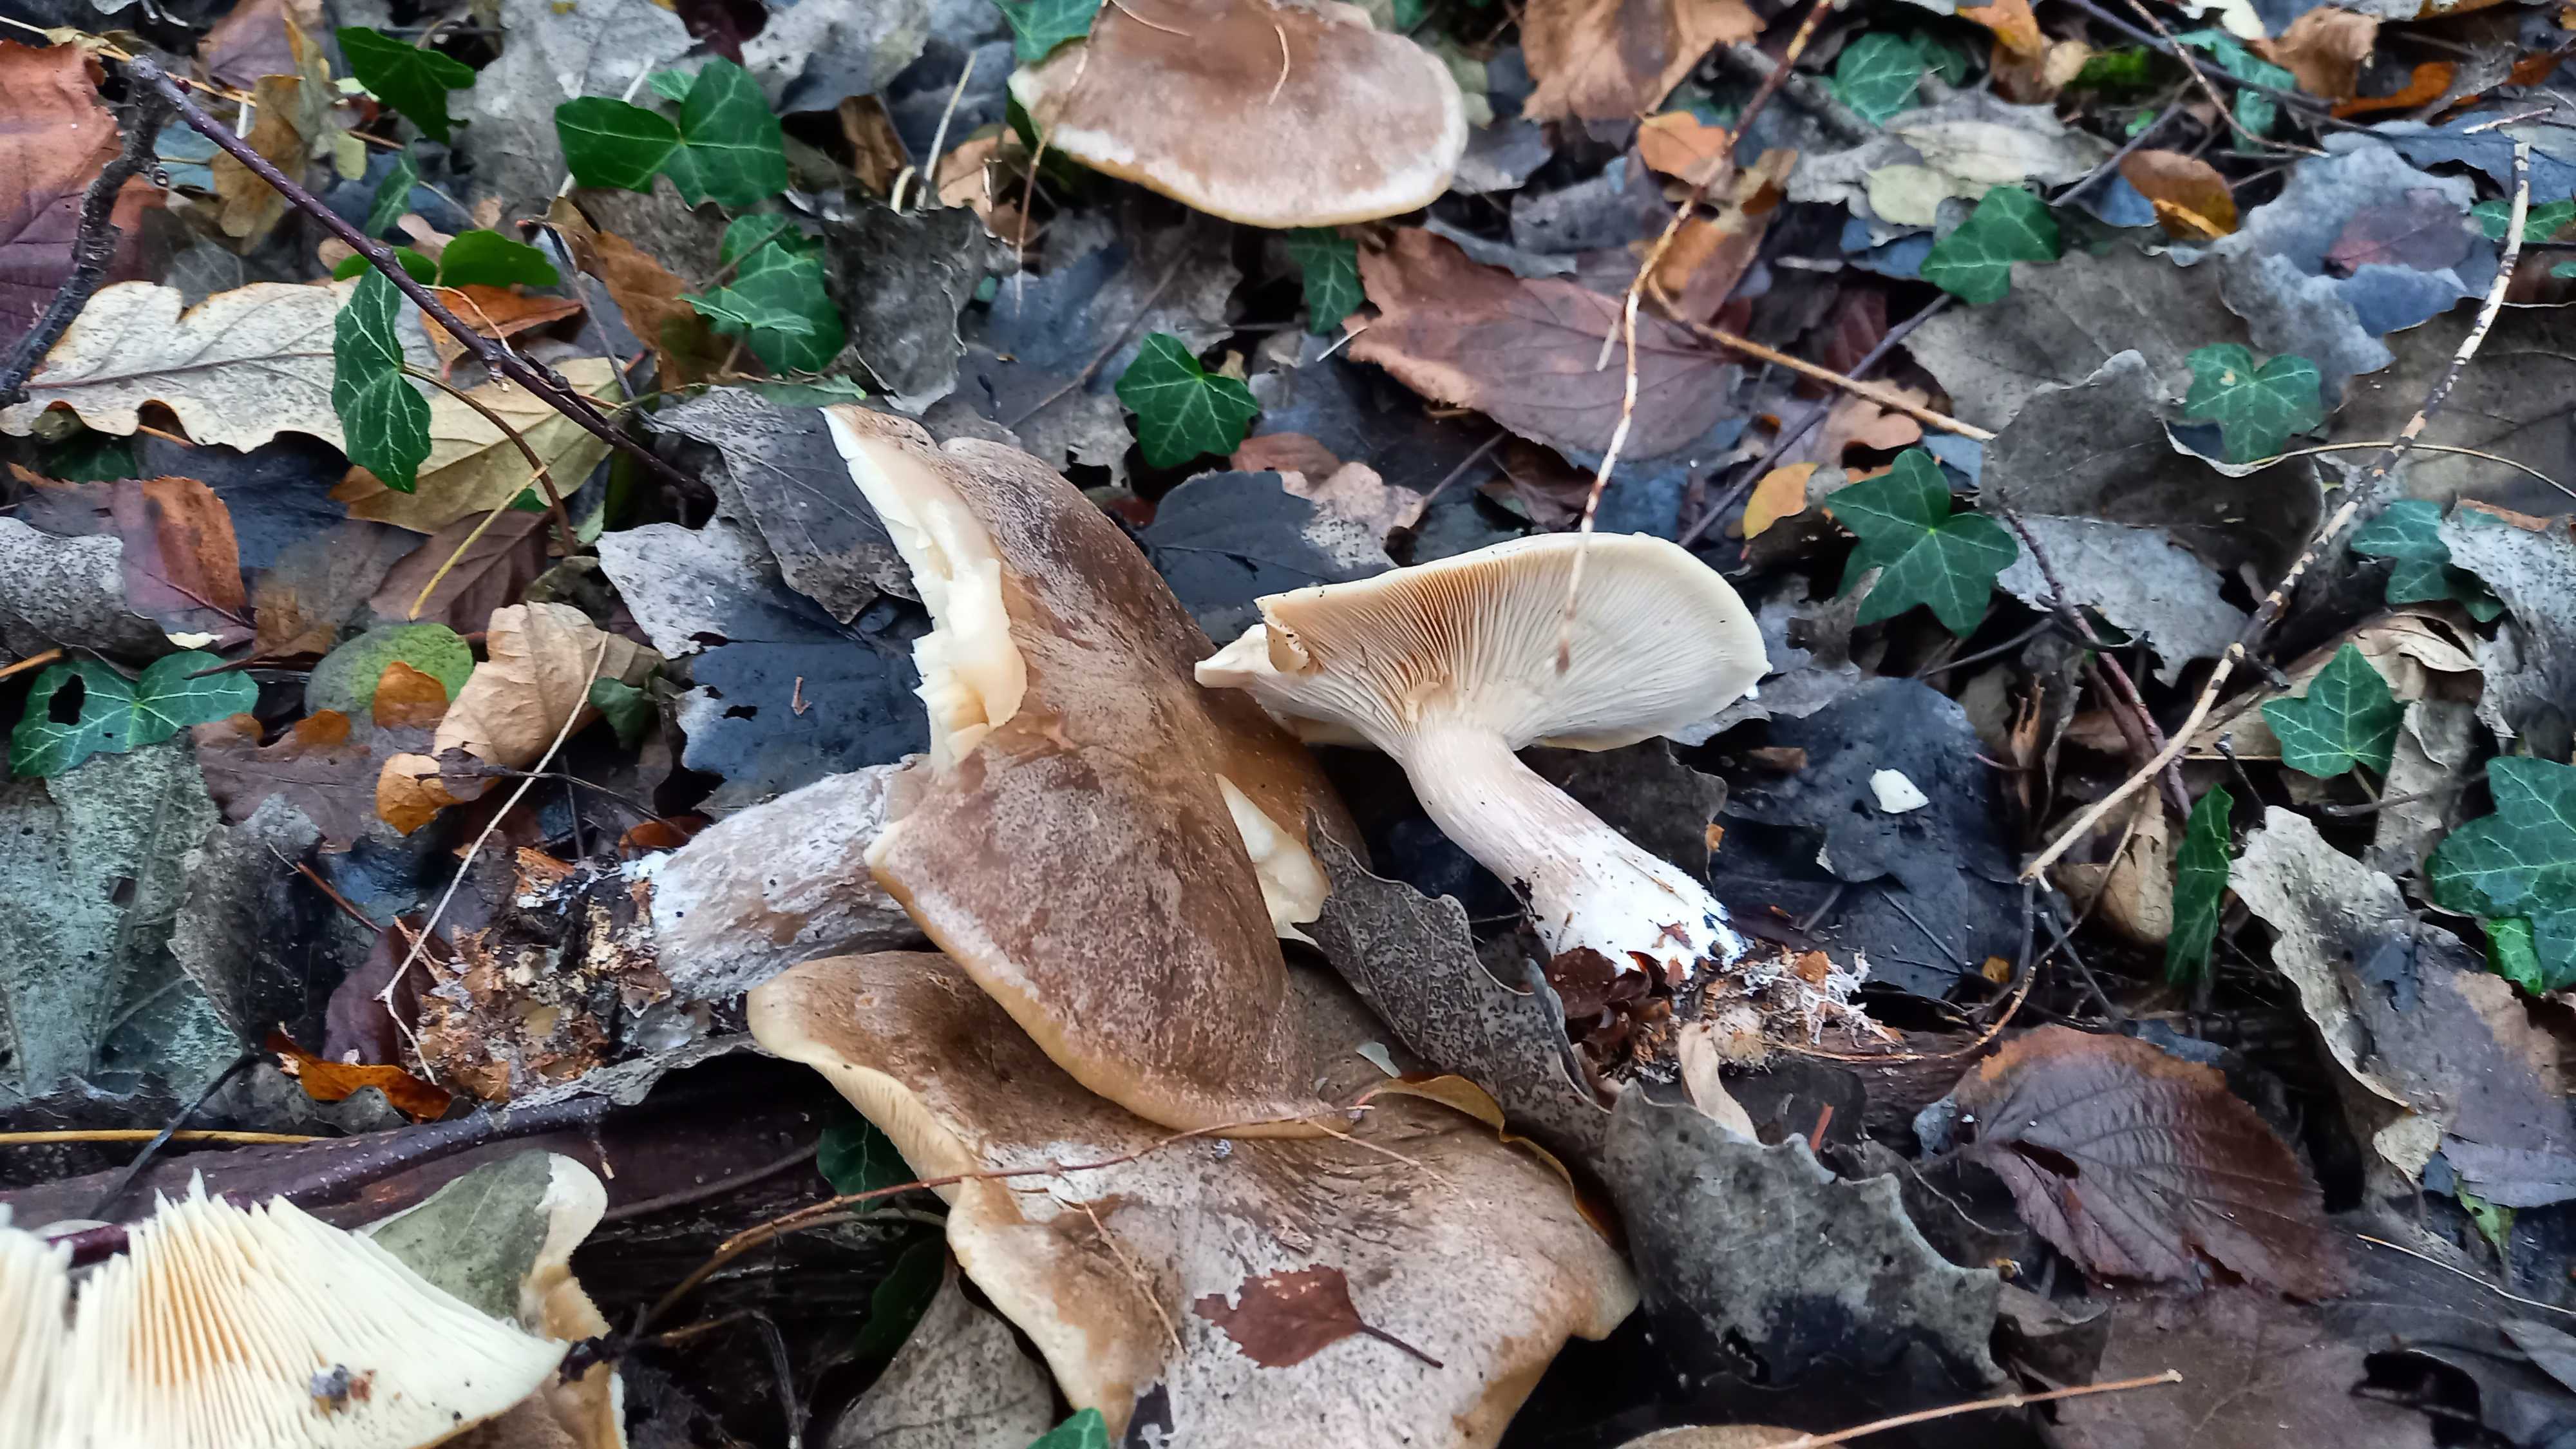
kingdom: Fungi
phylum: Basidiomycota
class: Agaricomycetes
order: Agaricales
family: Tricholomataceae
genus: Clitocybe
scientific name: Clitocybe nebularis
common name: tåge-tragthat
